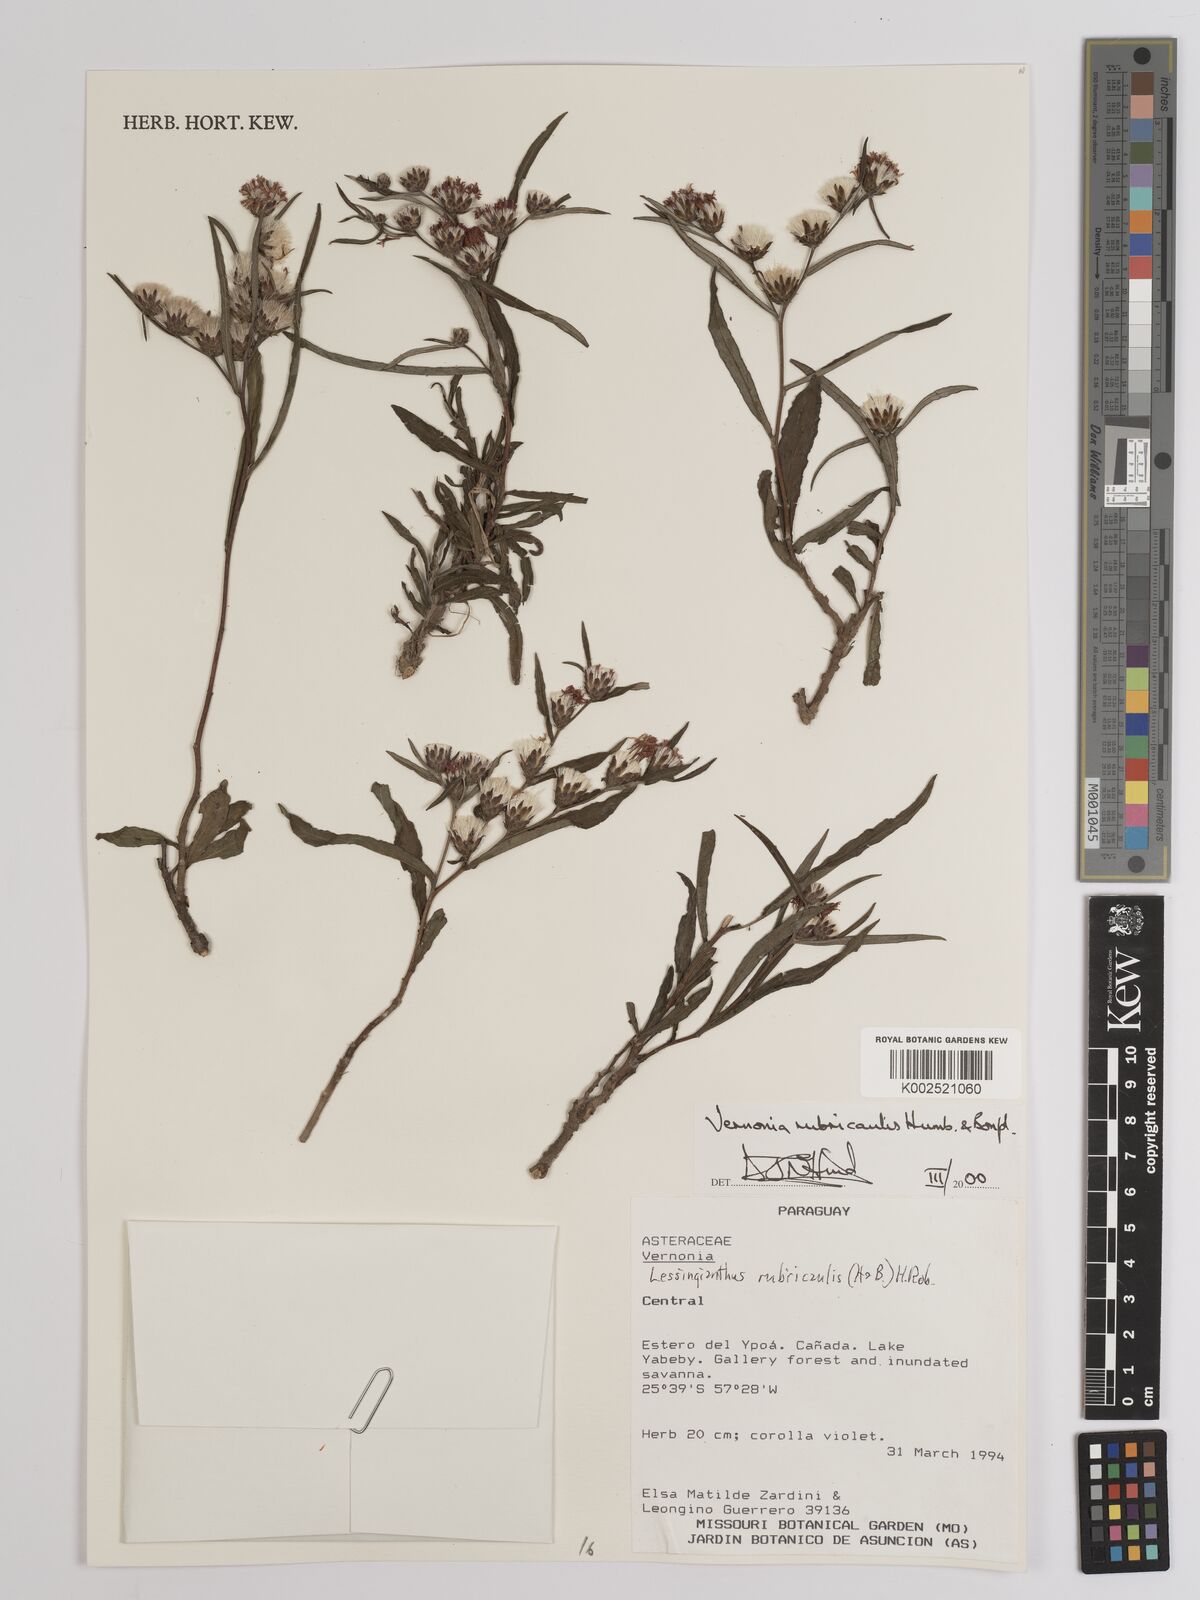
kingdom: Plantae
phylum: Tracheophyta
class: Magnoliopsida
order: Asterales
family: Asteraceae
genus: Lessingianthus
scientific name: Lessingianthus rubricaulis
